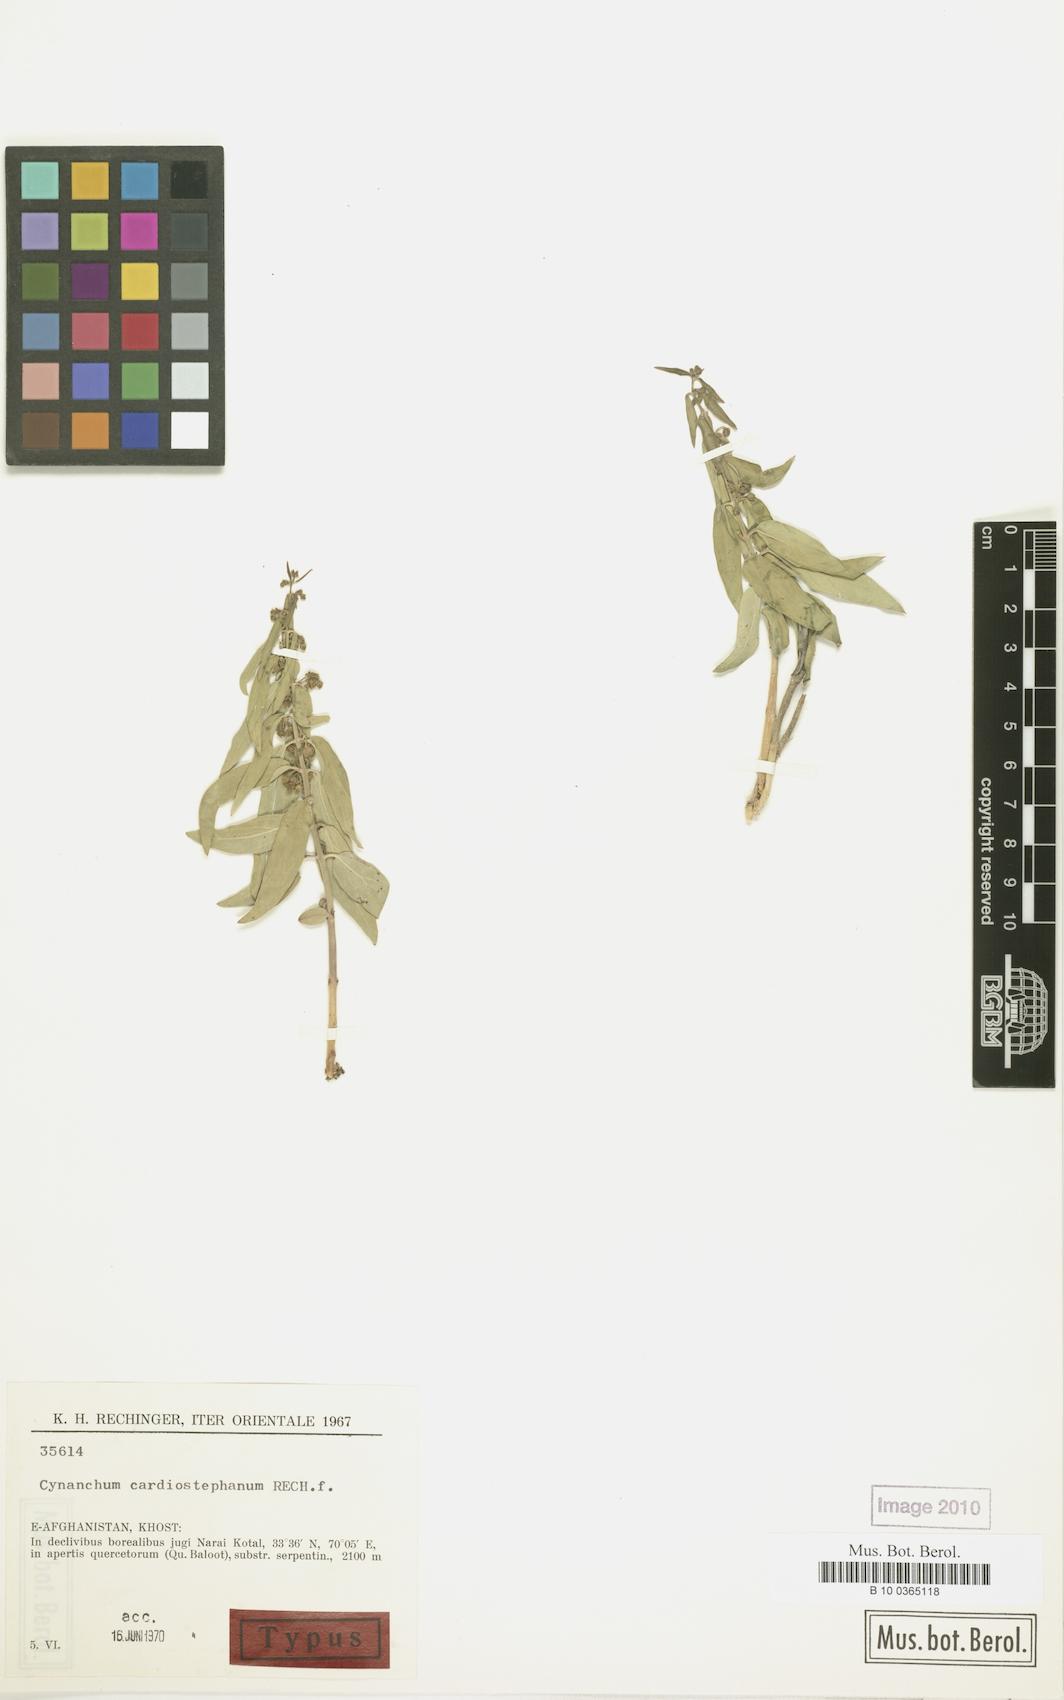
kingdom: Plantae
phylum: Tracheophyta
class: Magnoliopsida
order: Gentianales
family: Apocynaceae
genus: Vincetoxicum
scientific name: Vincetoxicum cardiostephanum
